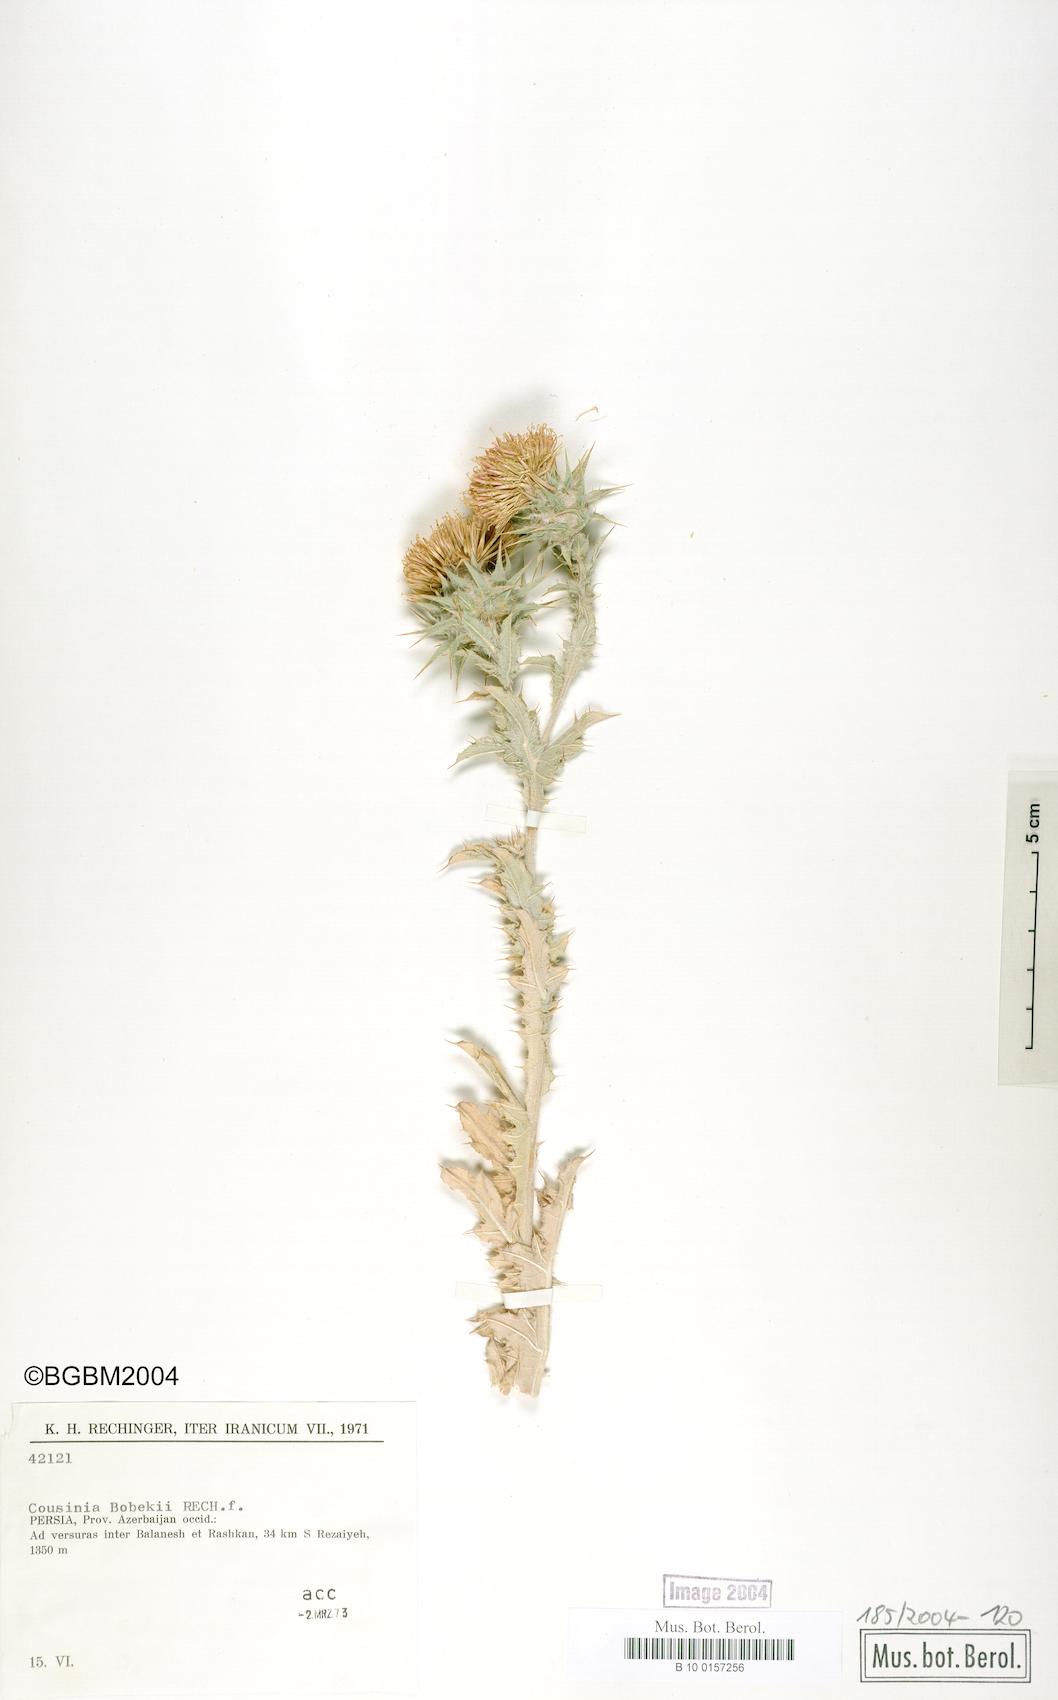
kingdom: Plantae
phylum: Tracheophyta
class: Magnoliopsida
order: Asterales
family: Asteraceae
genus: Cousinia
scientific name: Cousinia bobekii
